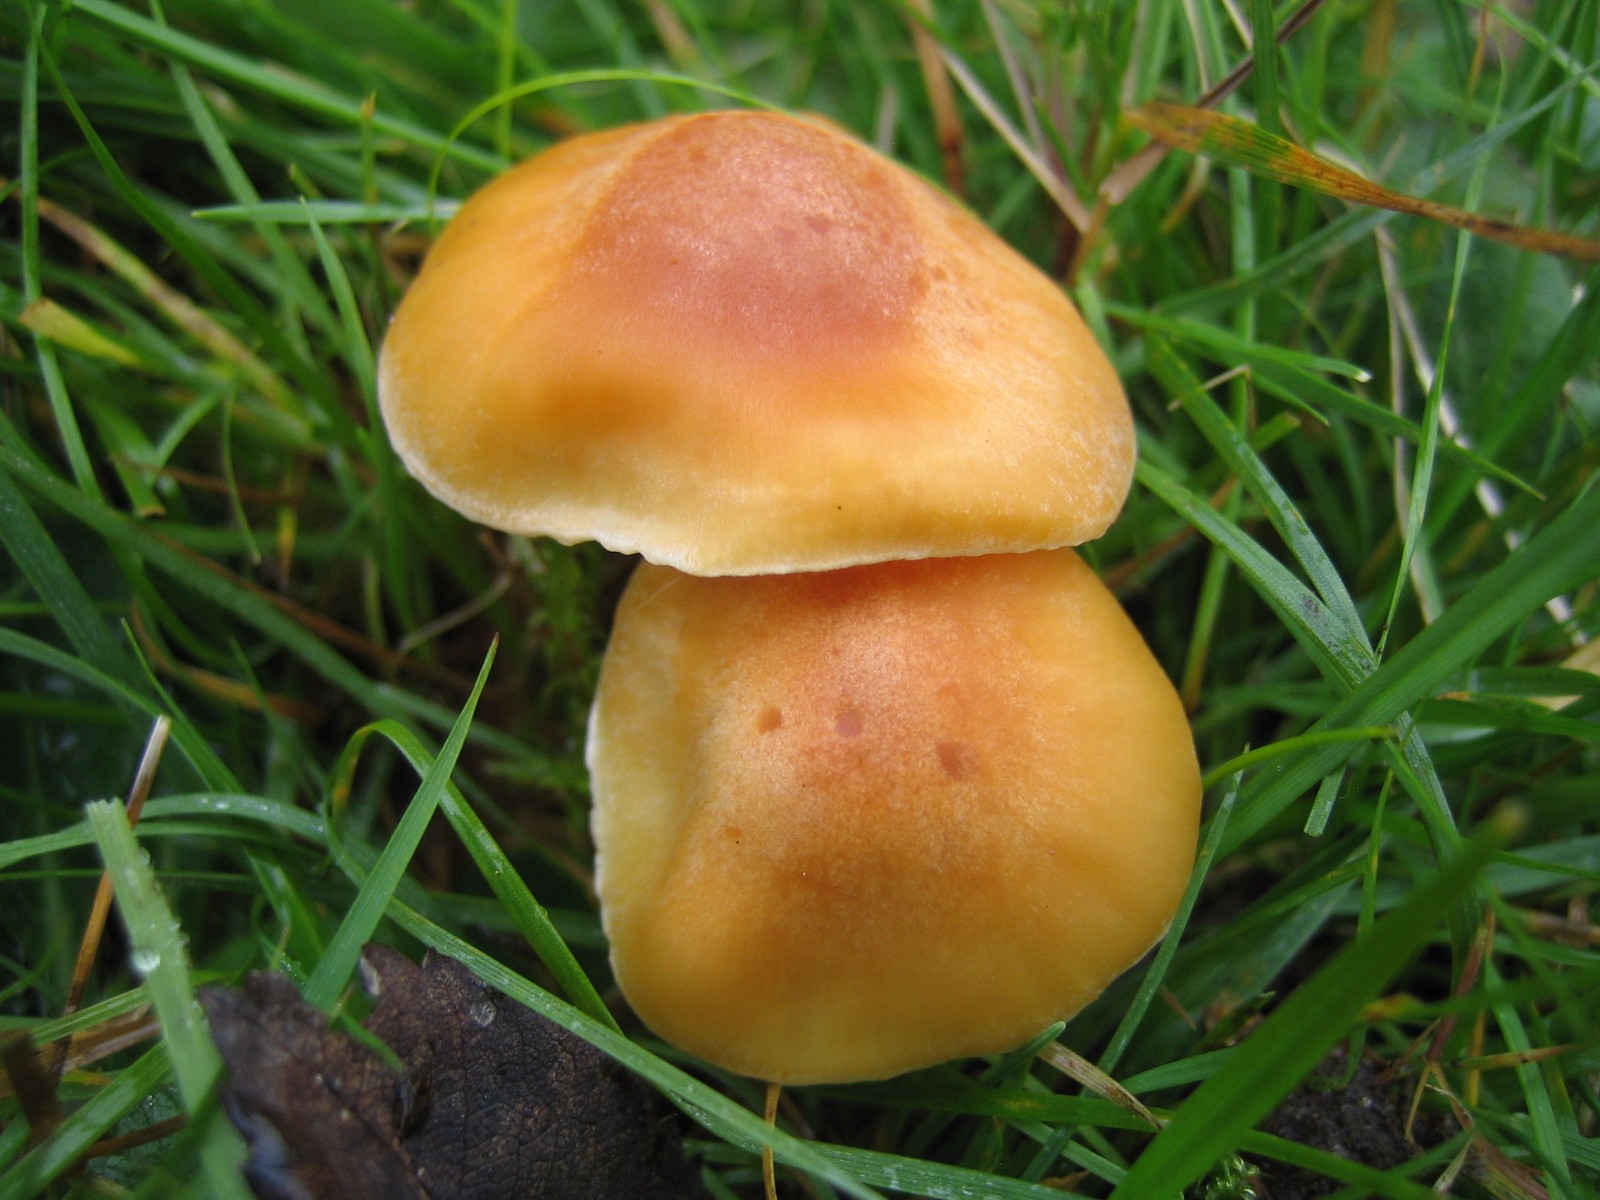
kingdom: Fungi
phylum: Basidiomycota
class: Agaricomycetes
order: Agaricales
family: Hygrophoraceae
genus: Cuphophyllus
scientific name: Cuphophyllus pratensis
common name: eng-vokshat
